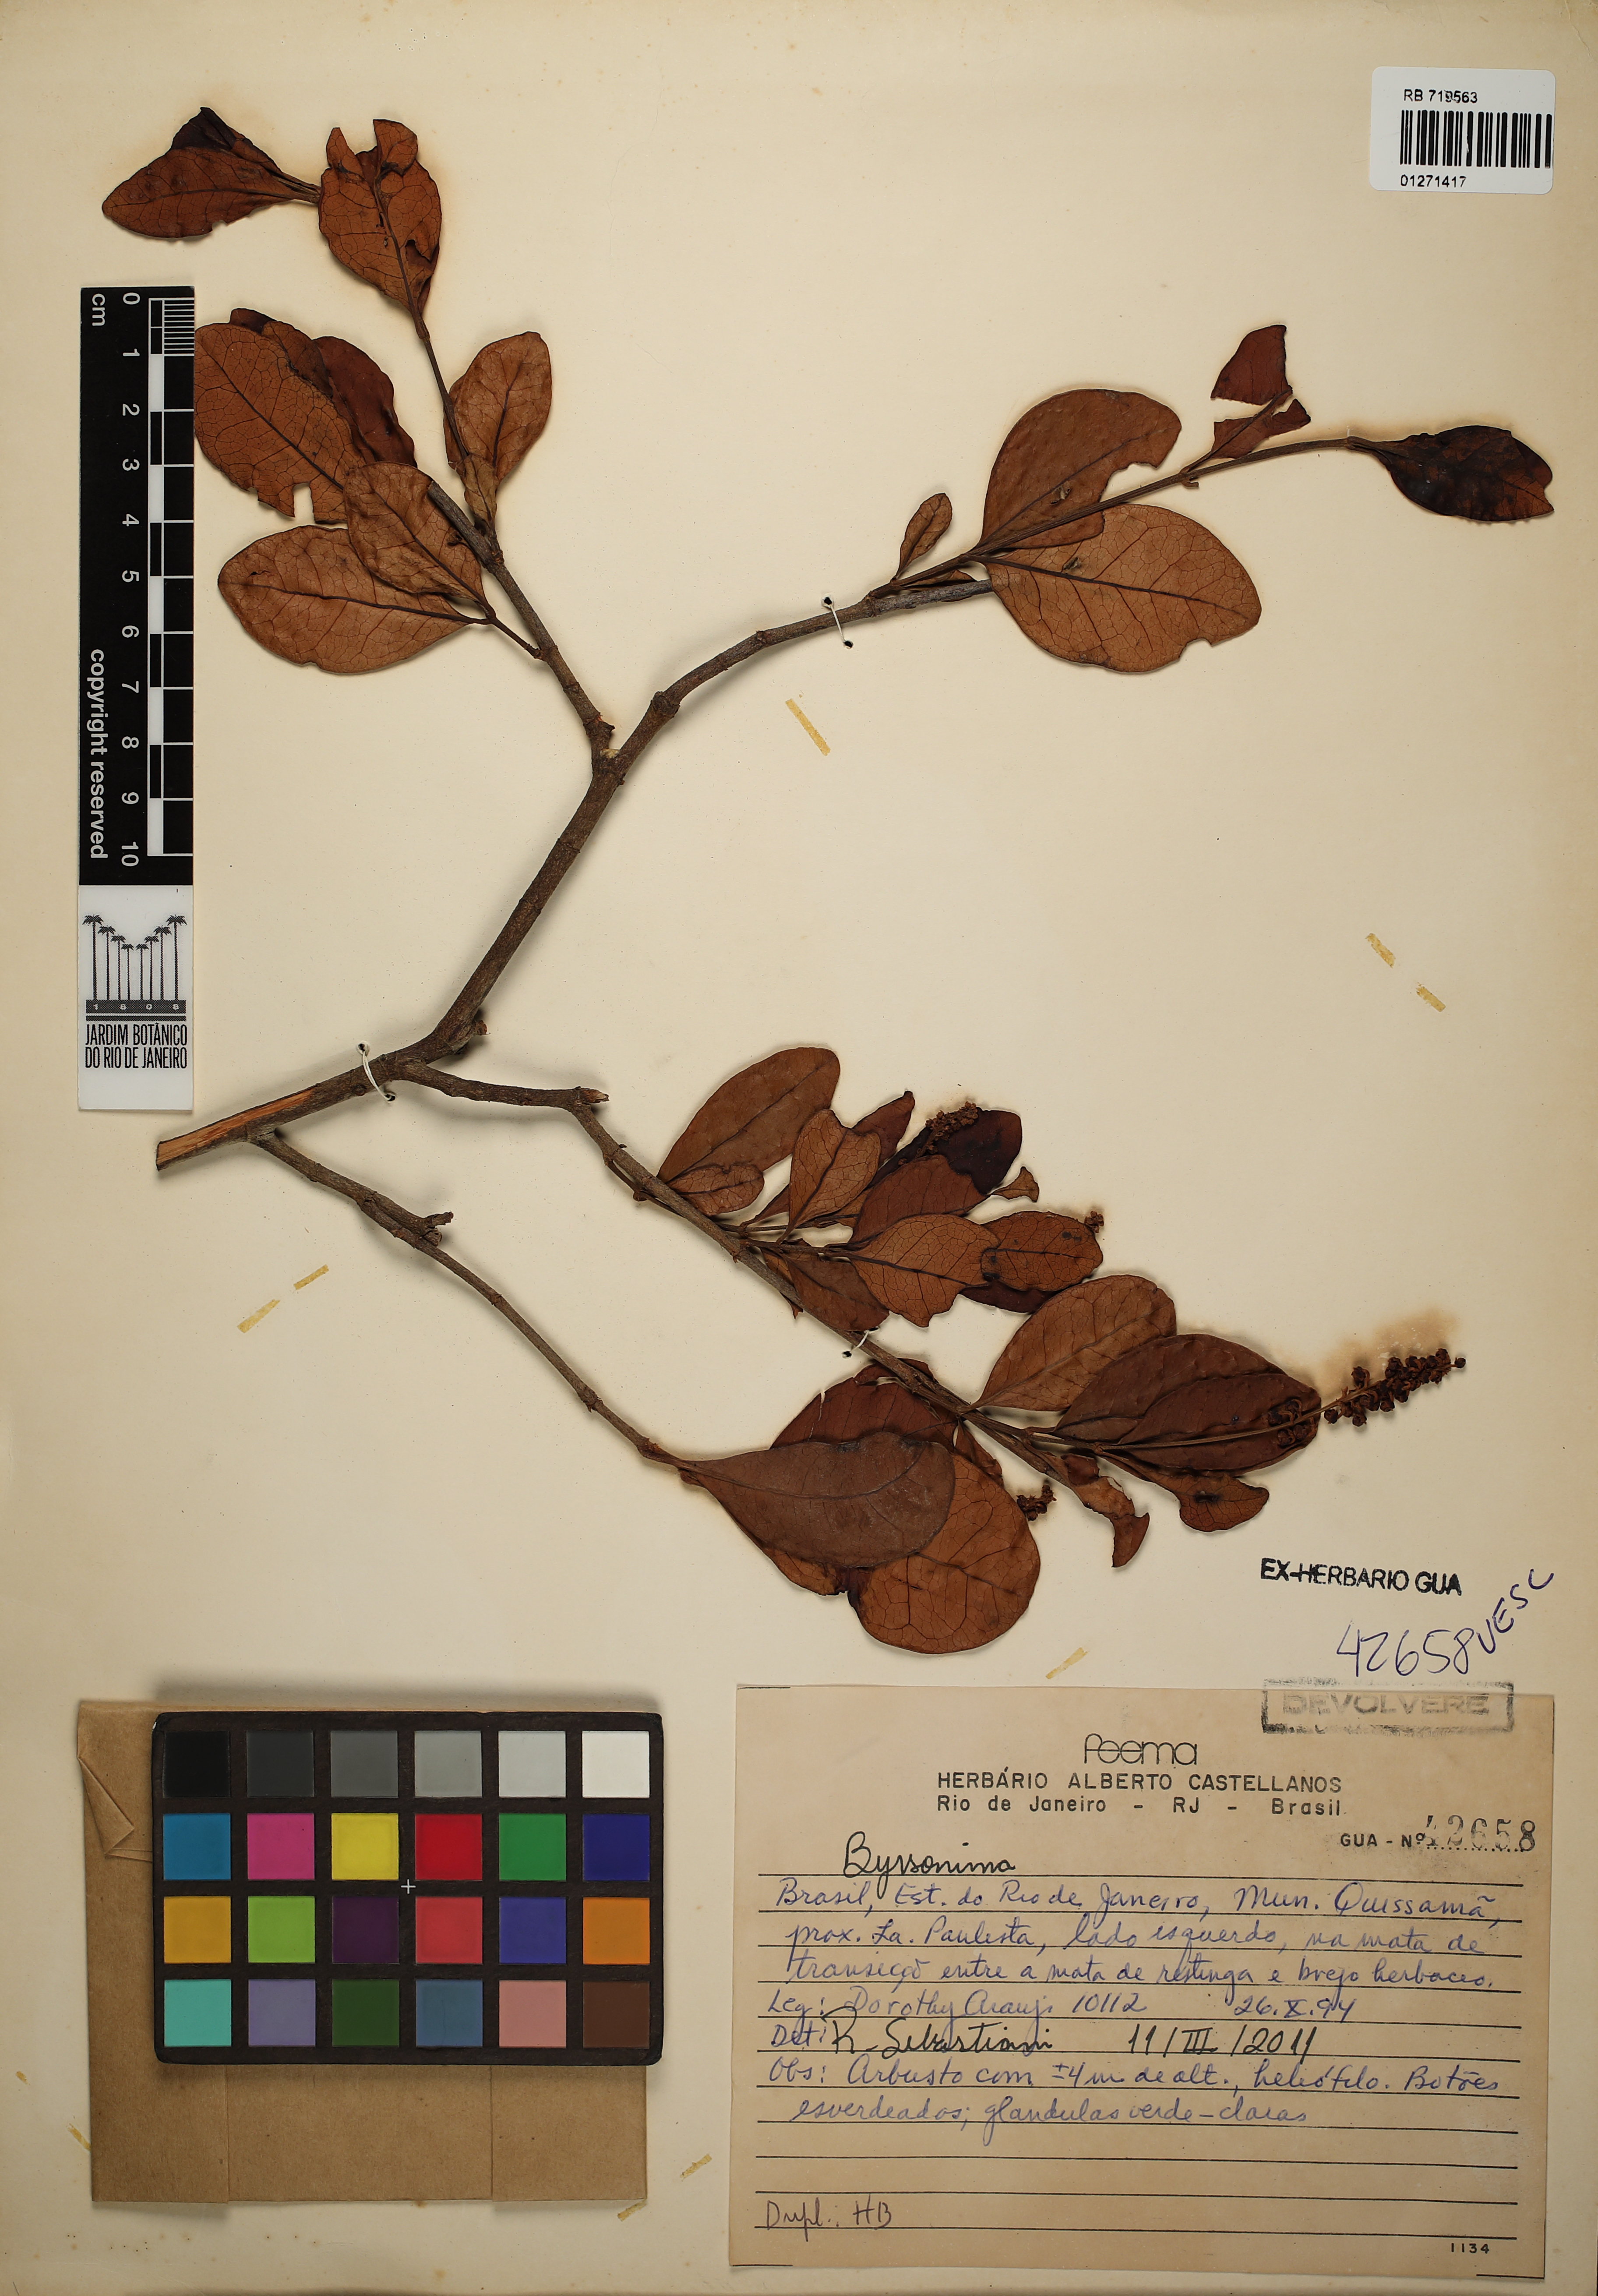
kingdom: Plantae
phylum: Tracheophyta
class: Magnoliopsida
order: Malpighiales
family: Malpighiaceae
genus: Byrsonima
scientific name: Byrsonima
